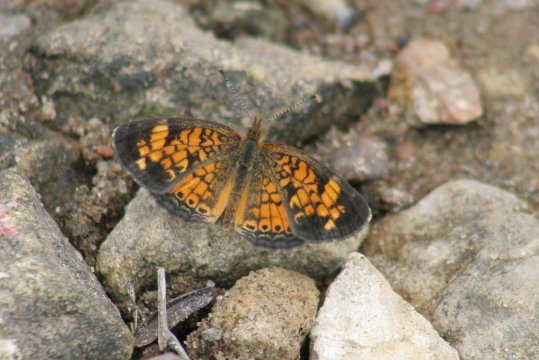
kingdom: Animalia
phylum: Arthropoda
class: Insecta
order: Lepidoptera
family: Nymphalidae
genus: Phyciodes
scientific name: Phyciodes tharos
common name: Pearl Crescent
